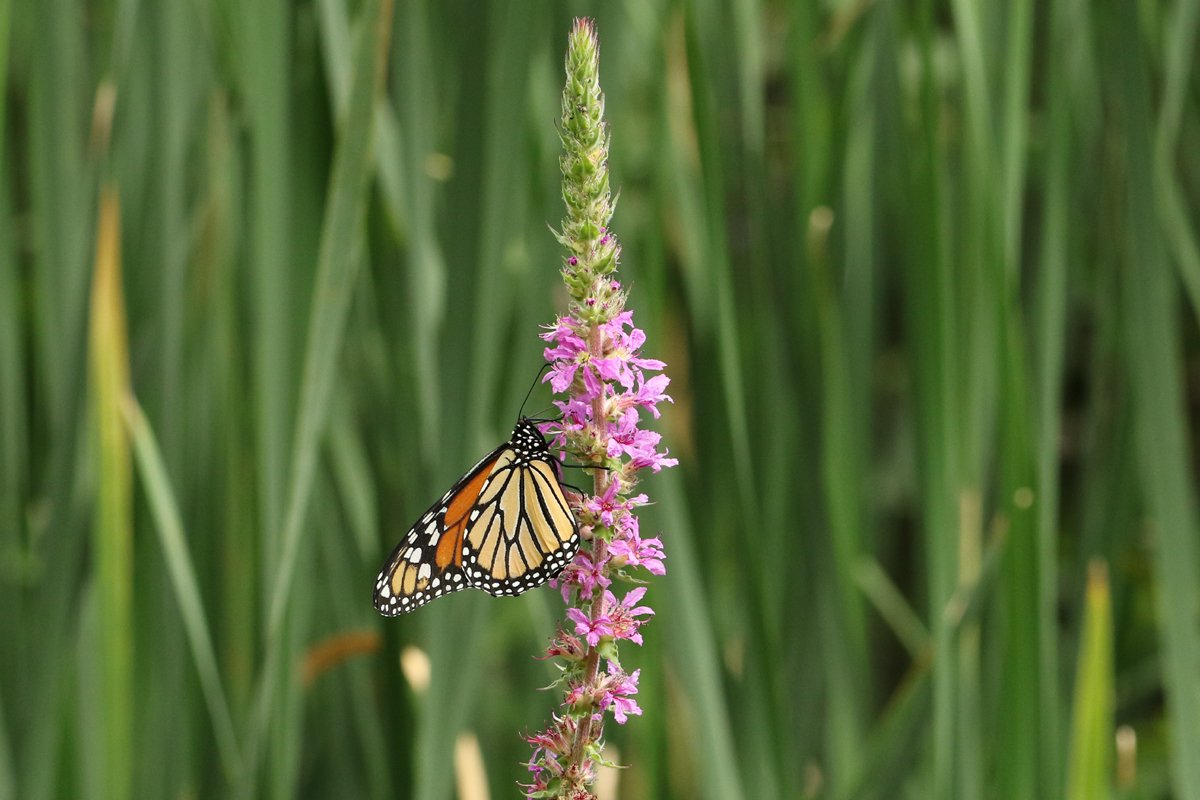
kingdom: Animalia
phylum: Arthropoda
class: Insecta
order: Lepidoptera
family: Nymphalidae
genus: Danaus
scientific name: Danaus plexippus
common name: Monarch
